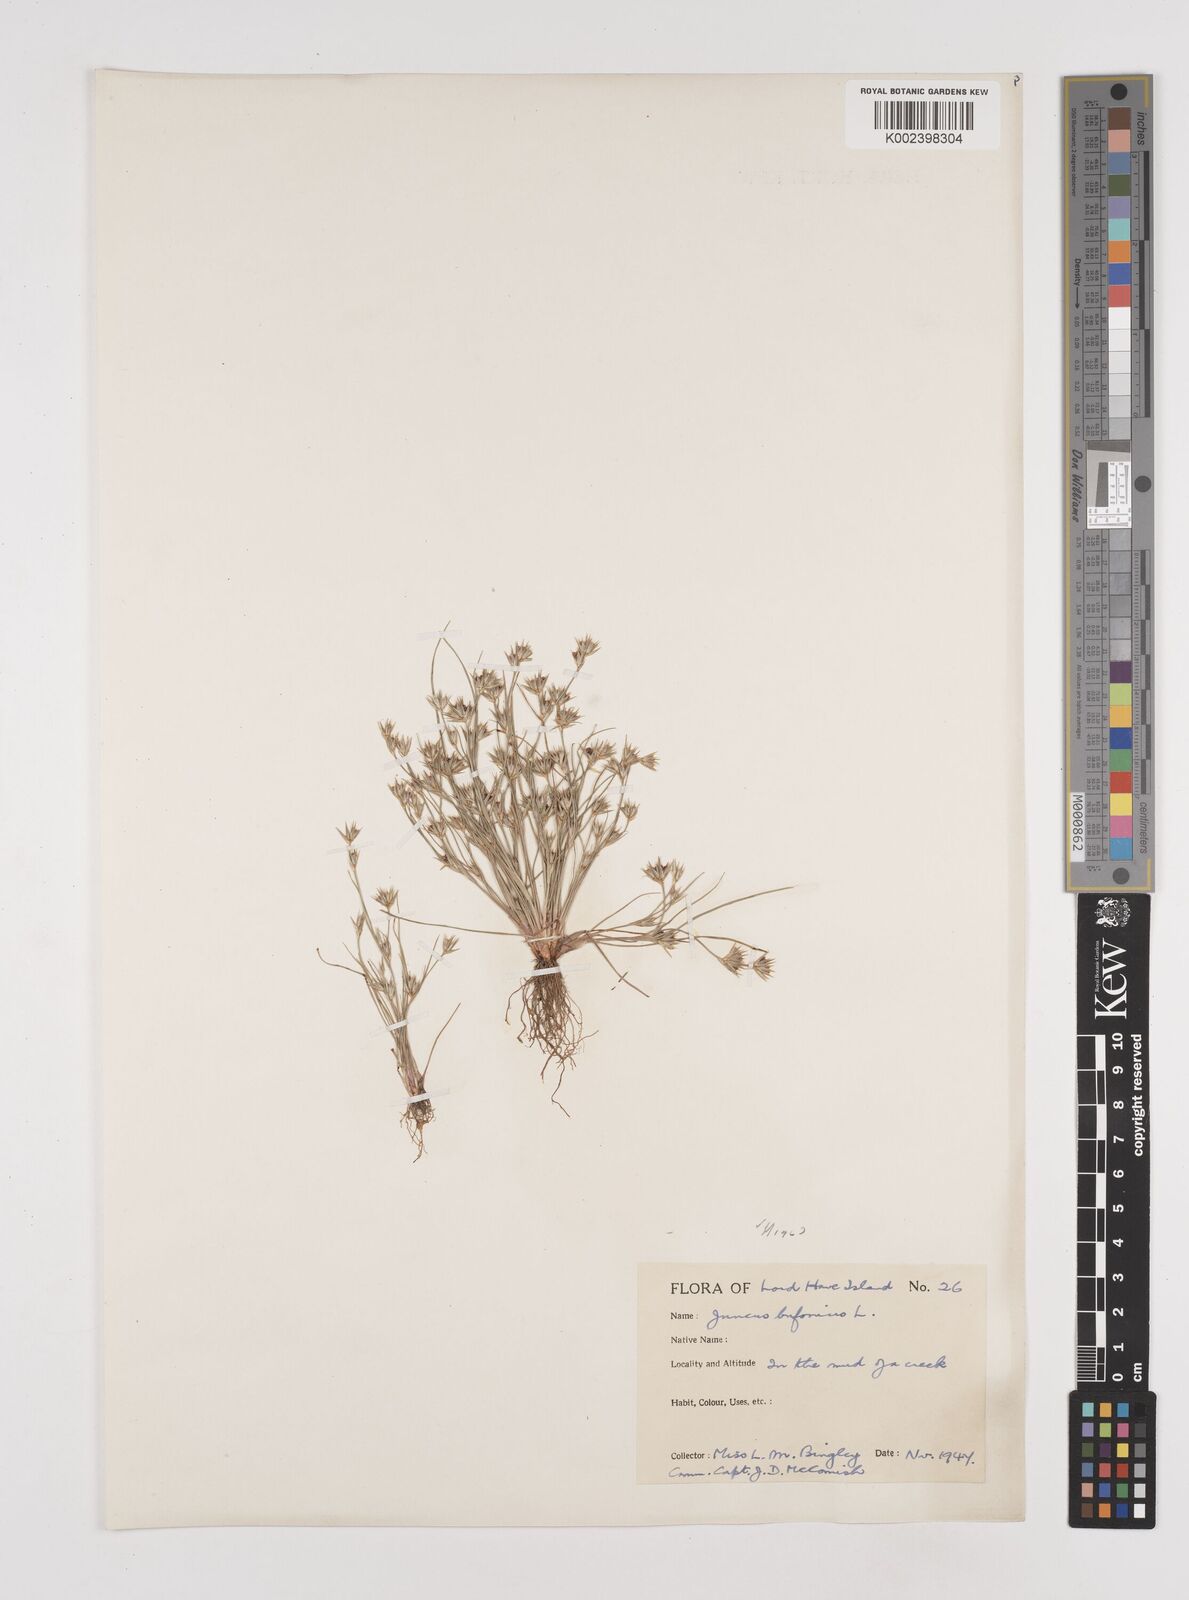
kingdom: Plantae
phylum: Tracheophyta
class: Liliopsida
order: Poales
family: Juncaceae
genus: Juncus
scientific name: Juncus bufonius
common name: Toad rush
